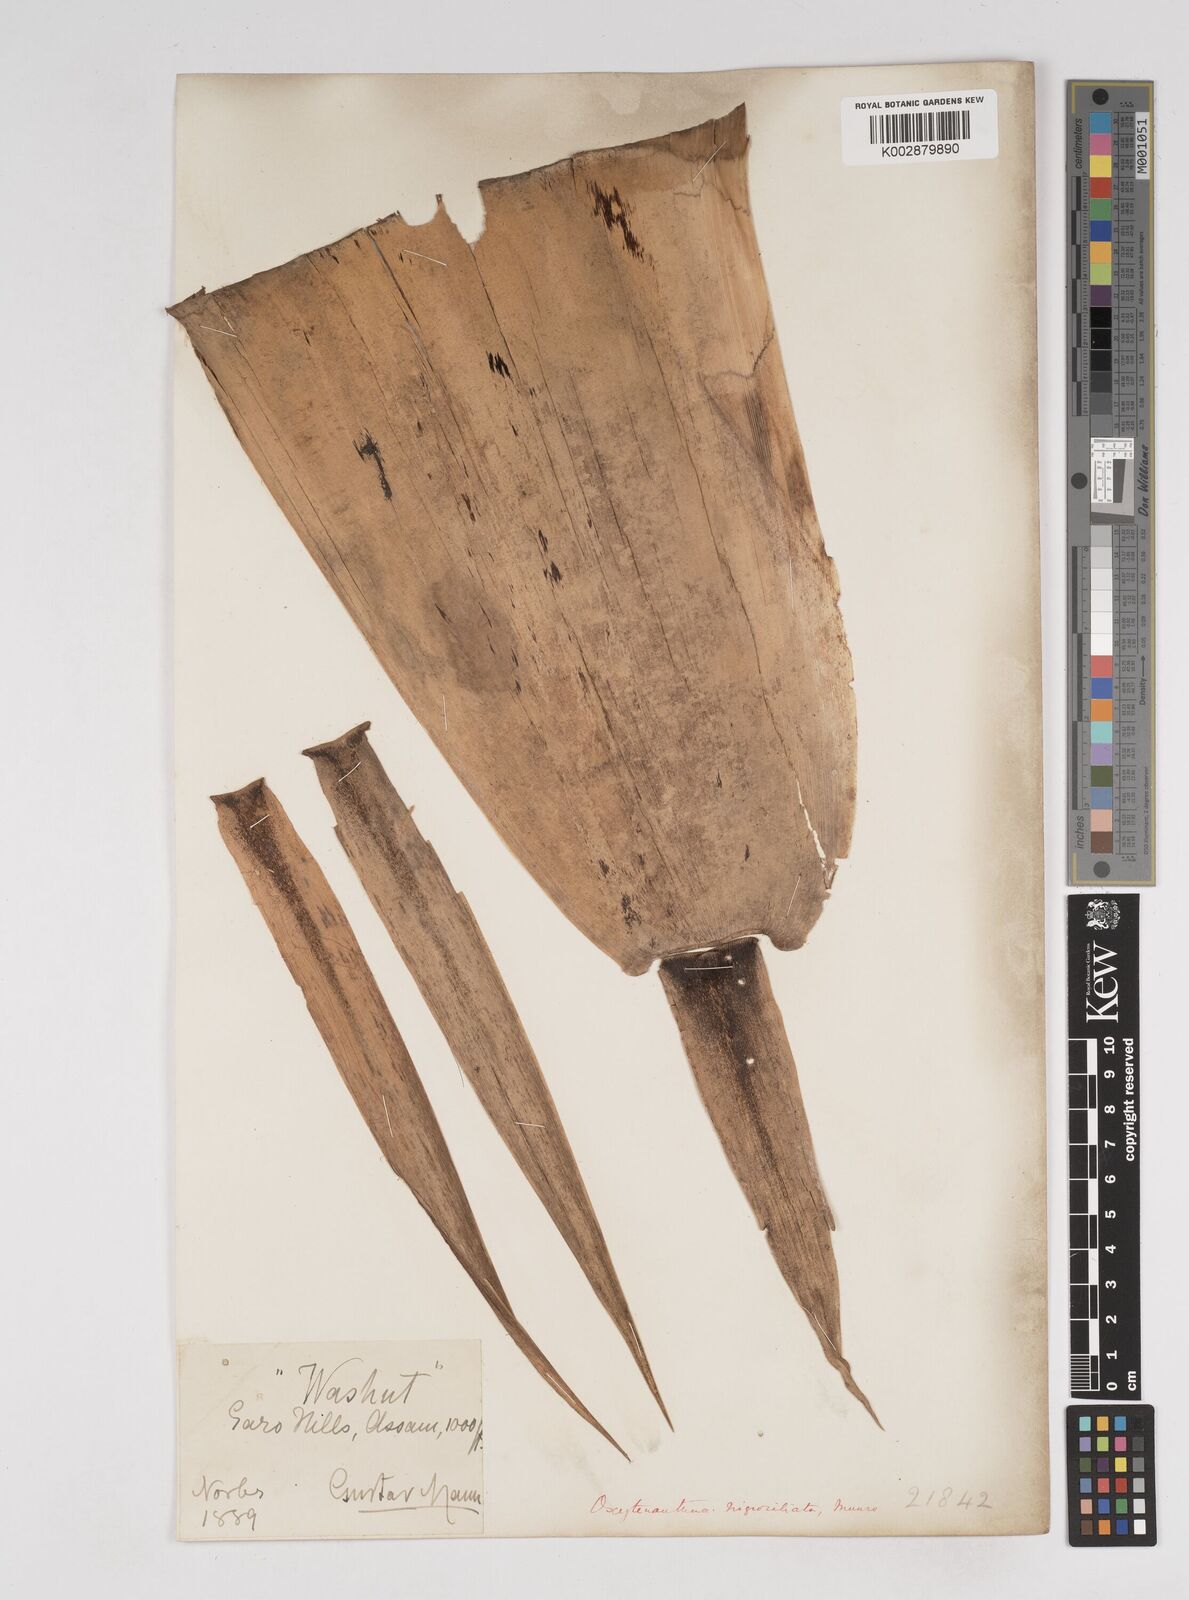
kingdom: Plantae
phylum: Tracheophyta
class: Liliopsida
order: Poales
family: Poaceae
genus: Gigantochloa
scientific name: Gigantochloa
